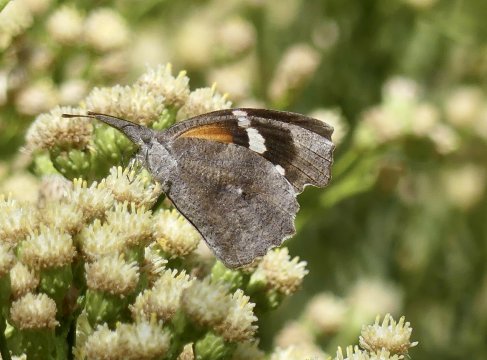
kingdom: Animalia
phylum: Arthropoda
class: Insecta
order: Lepidoptera
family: Nymphalidae
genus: Libytheana
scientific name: Libytheana carinenta
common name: American Snout
